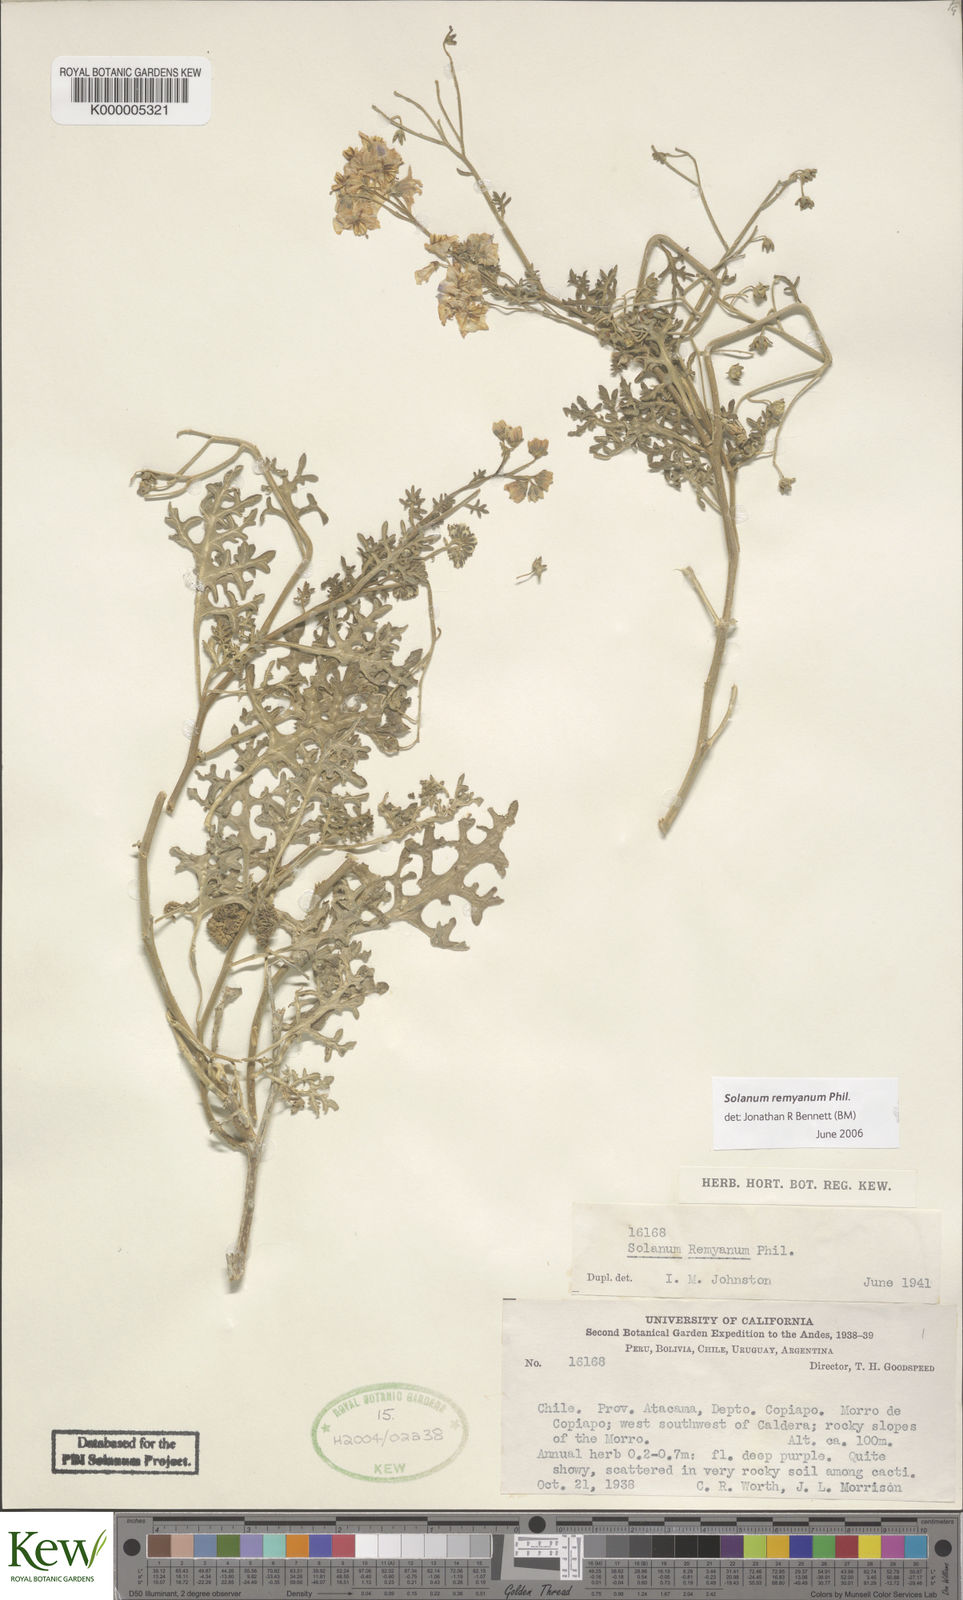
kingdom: Plantae
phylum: Tracheophyta
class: Magnoliopsida
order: Solanales
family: Solanaceae
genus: Solanum
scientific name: Solanum remyanum
